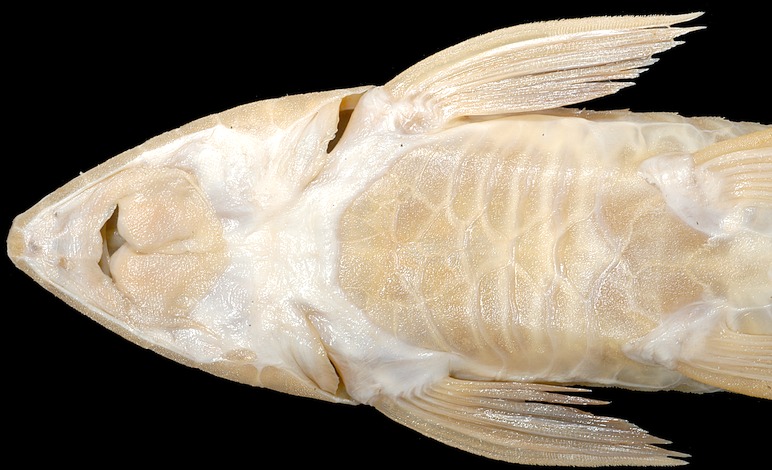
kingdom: Animalia
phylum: Chordata
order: Siluriformes
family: Loricariidae
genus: Loricariichthys
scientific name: Loricariichthys castaneus
